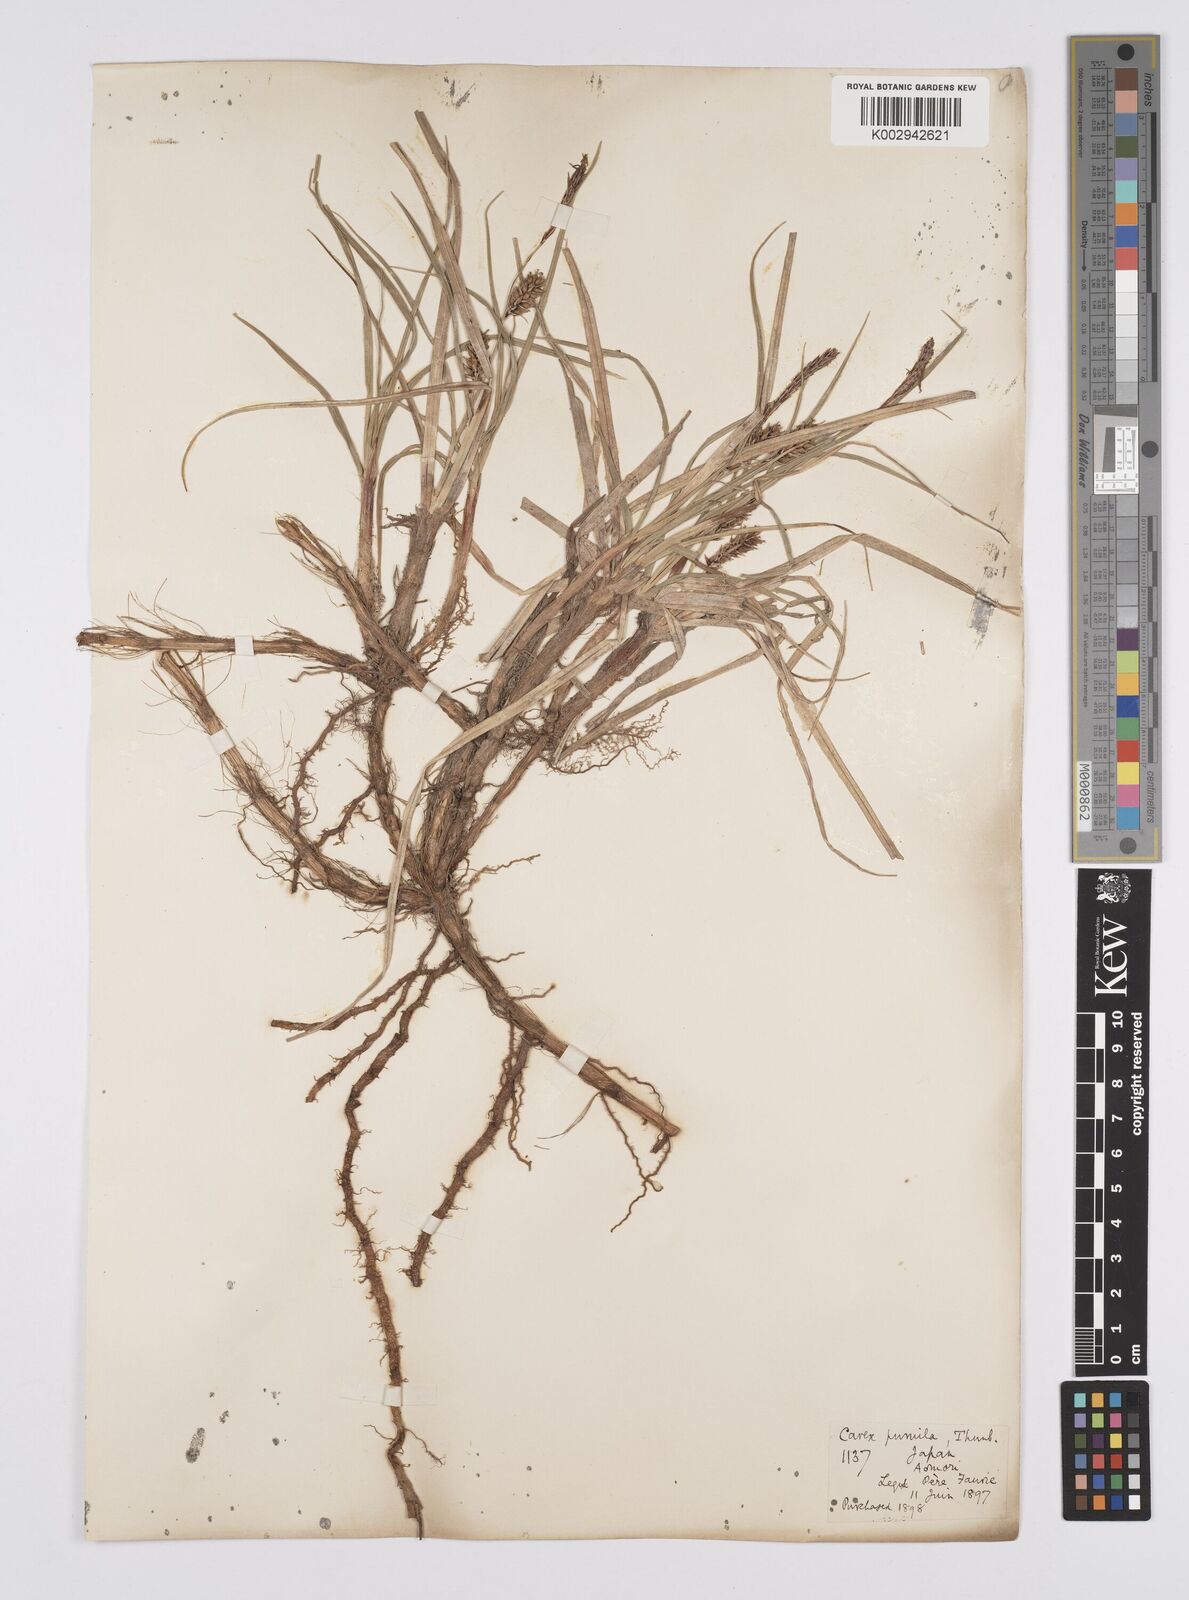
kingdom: Plantae
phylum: Tracheophyta
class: Liliopsida
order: Poales
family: Cyperaceae
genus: Carex
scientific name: Carex pumila
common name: Dwarf sedge
